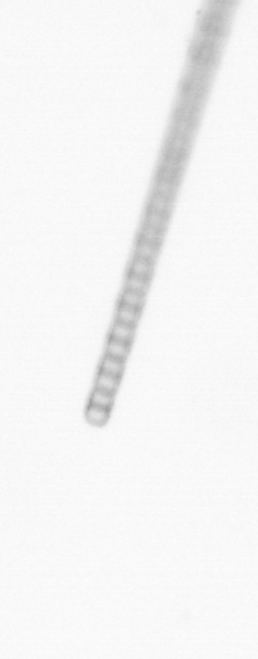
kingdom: Chromista
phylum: Ochrophyta
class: Bacillariophyceae
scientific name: Bacillariophyceae
